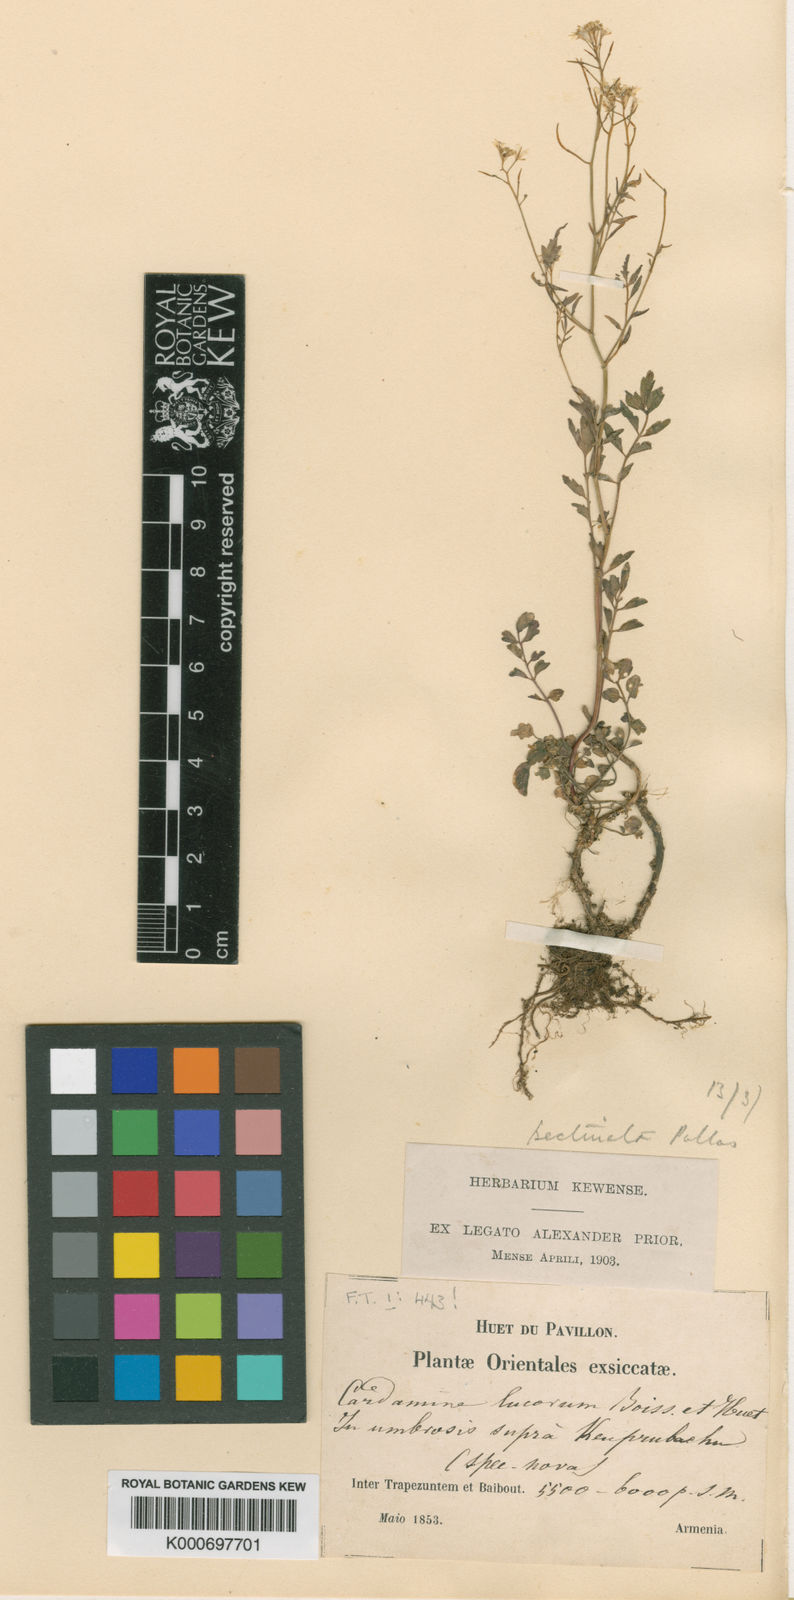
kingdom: Plantae
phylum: Tracheophyta
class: Magnoliopsida
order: Brassicales
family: Brassicaceae
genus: Cardamine
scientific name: Cardamine impatiens
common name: Narrow-leaved bitter-cress
